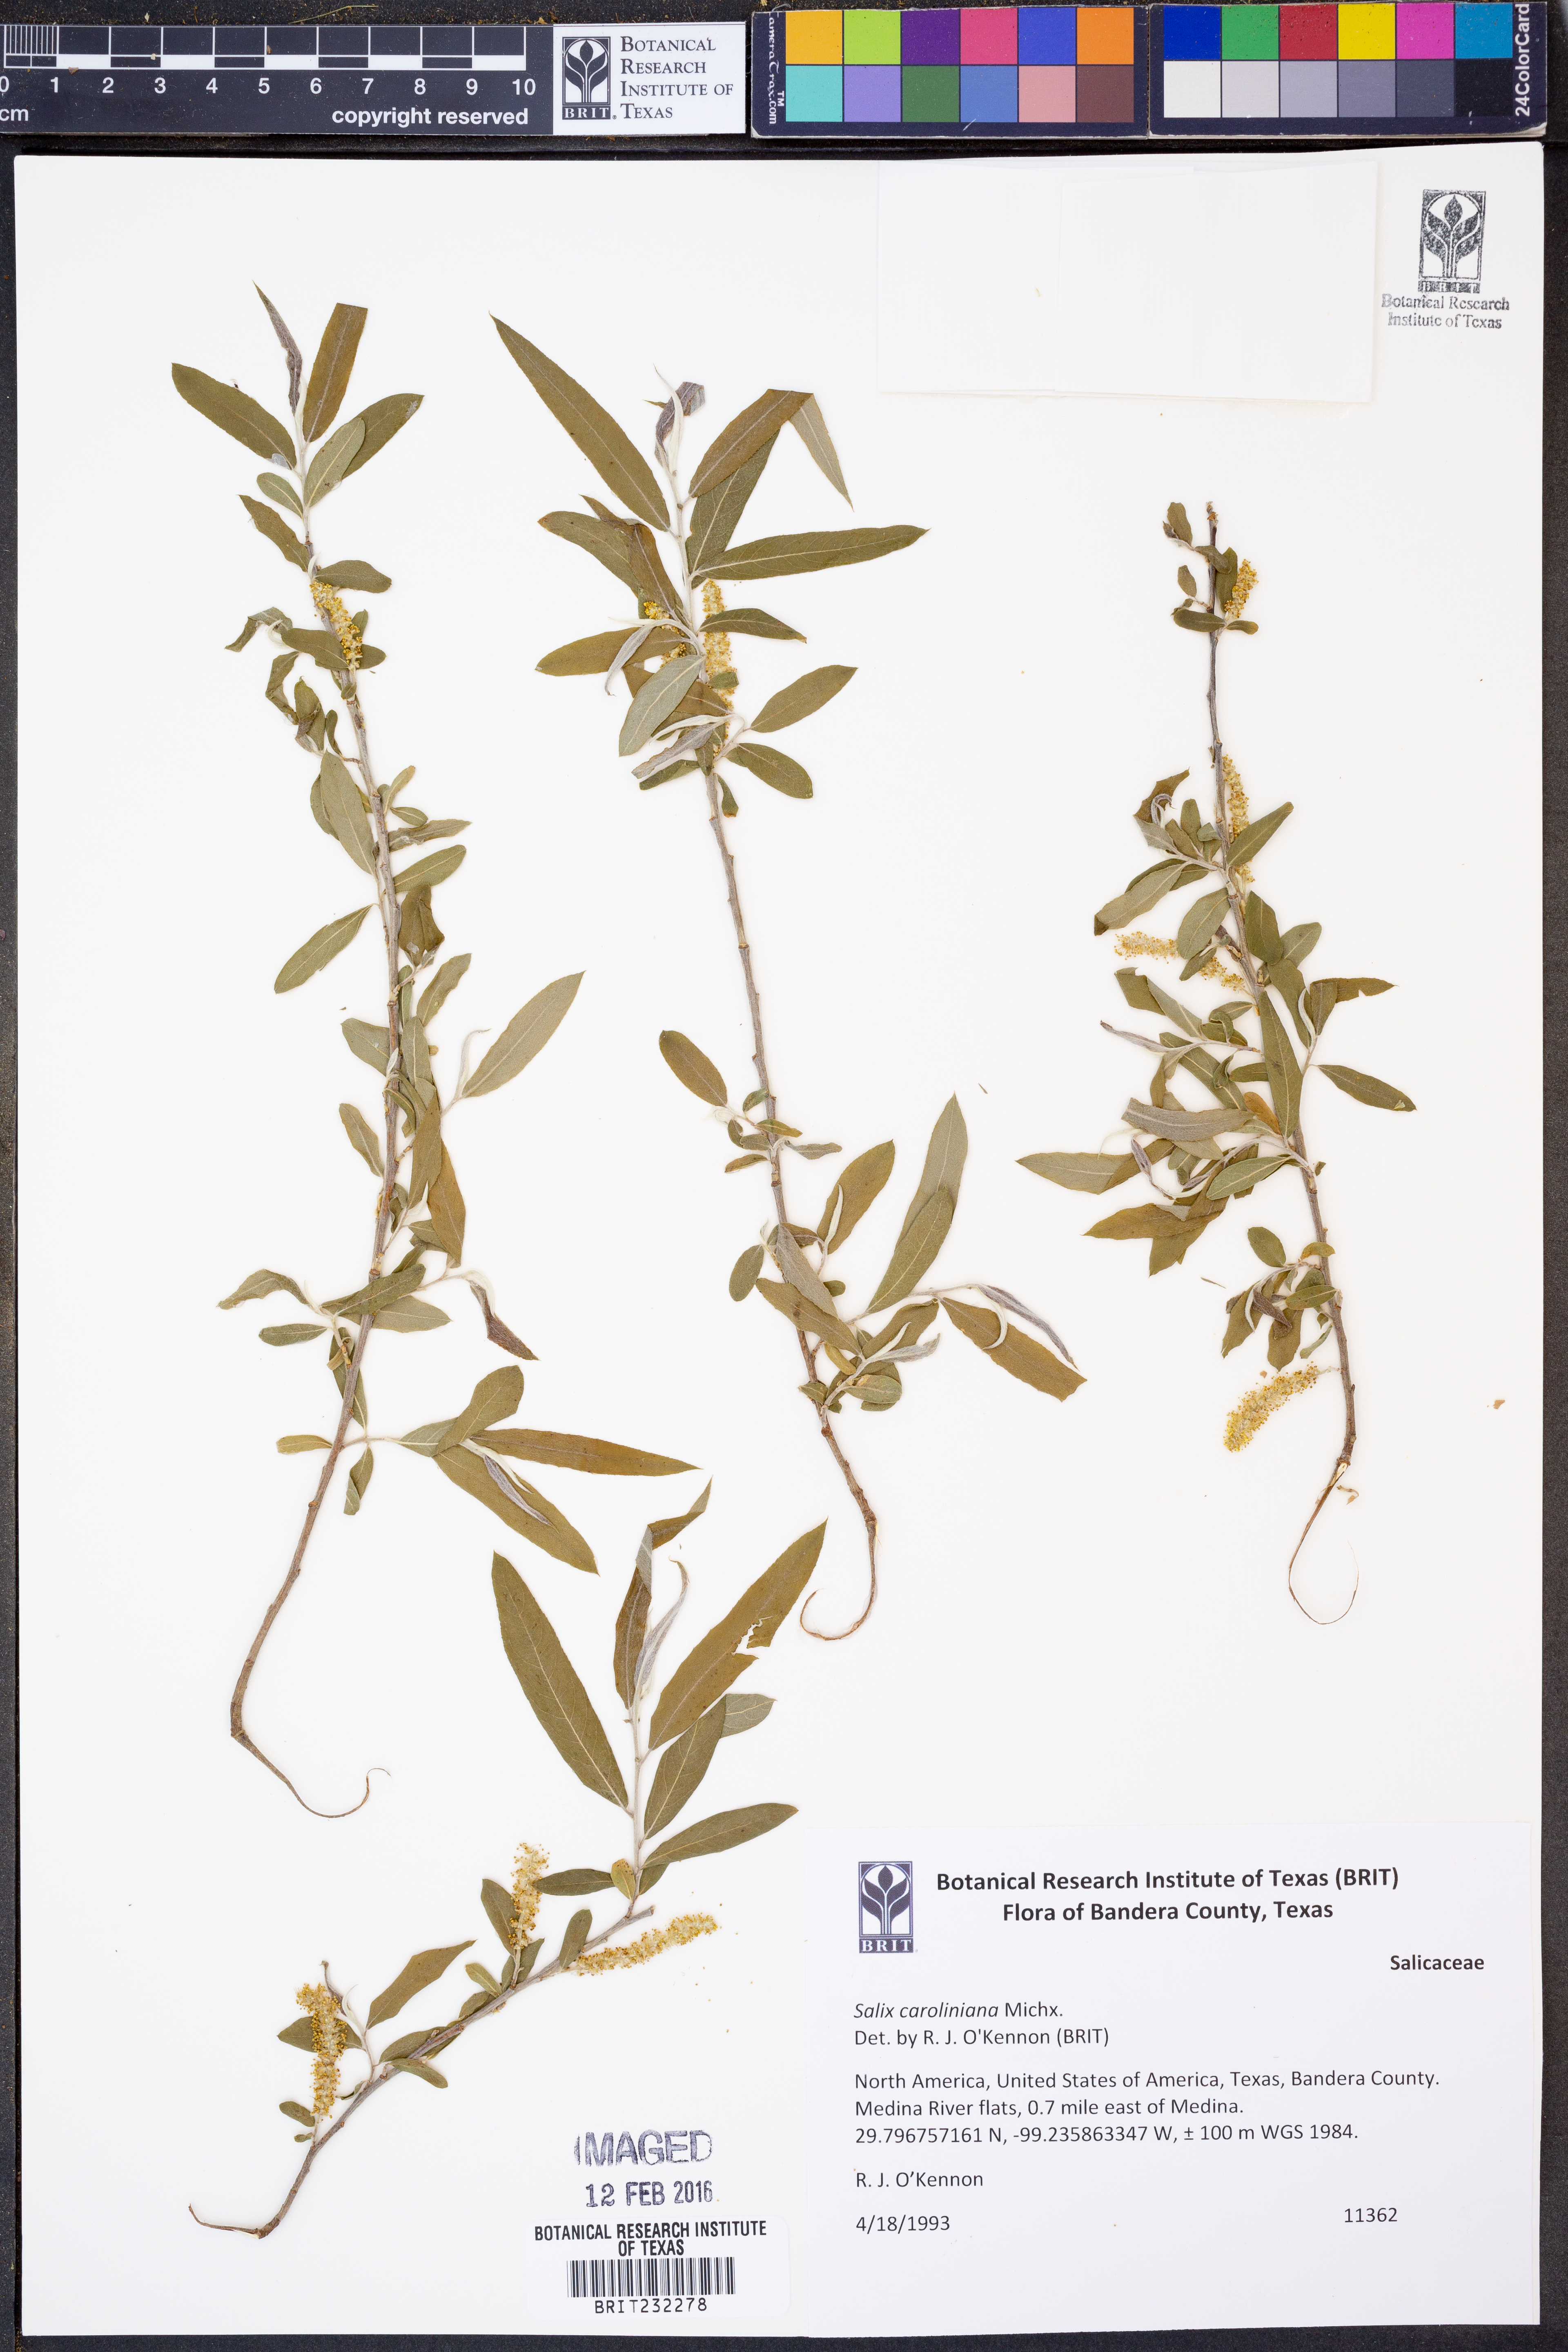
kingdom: Plantae
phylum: Tracheophyta
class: Magnoliopsida
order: Malpighiales
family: Salicaceae
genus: Salix
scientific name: Salix caroliniana
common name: Carolina willow
